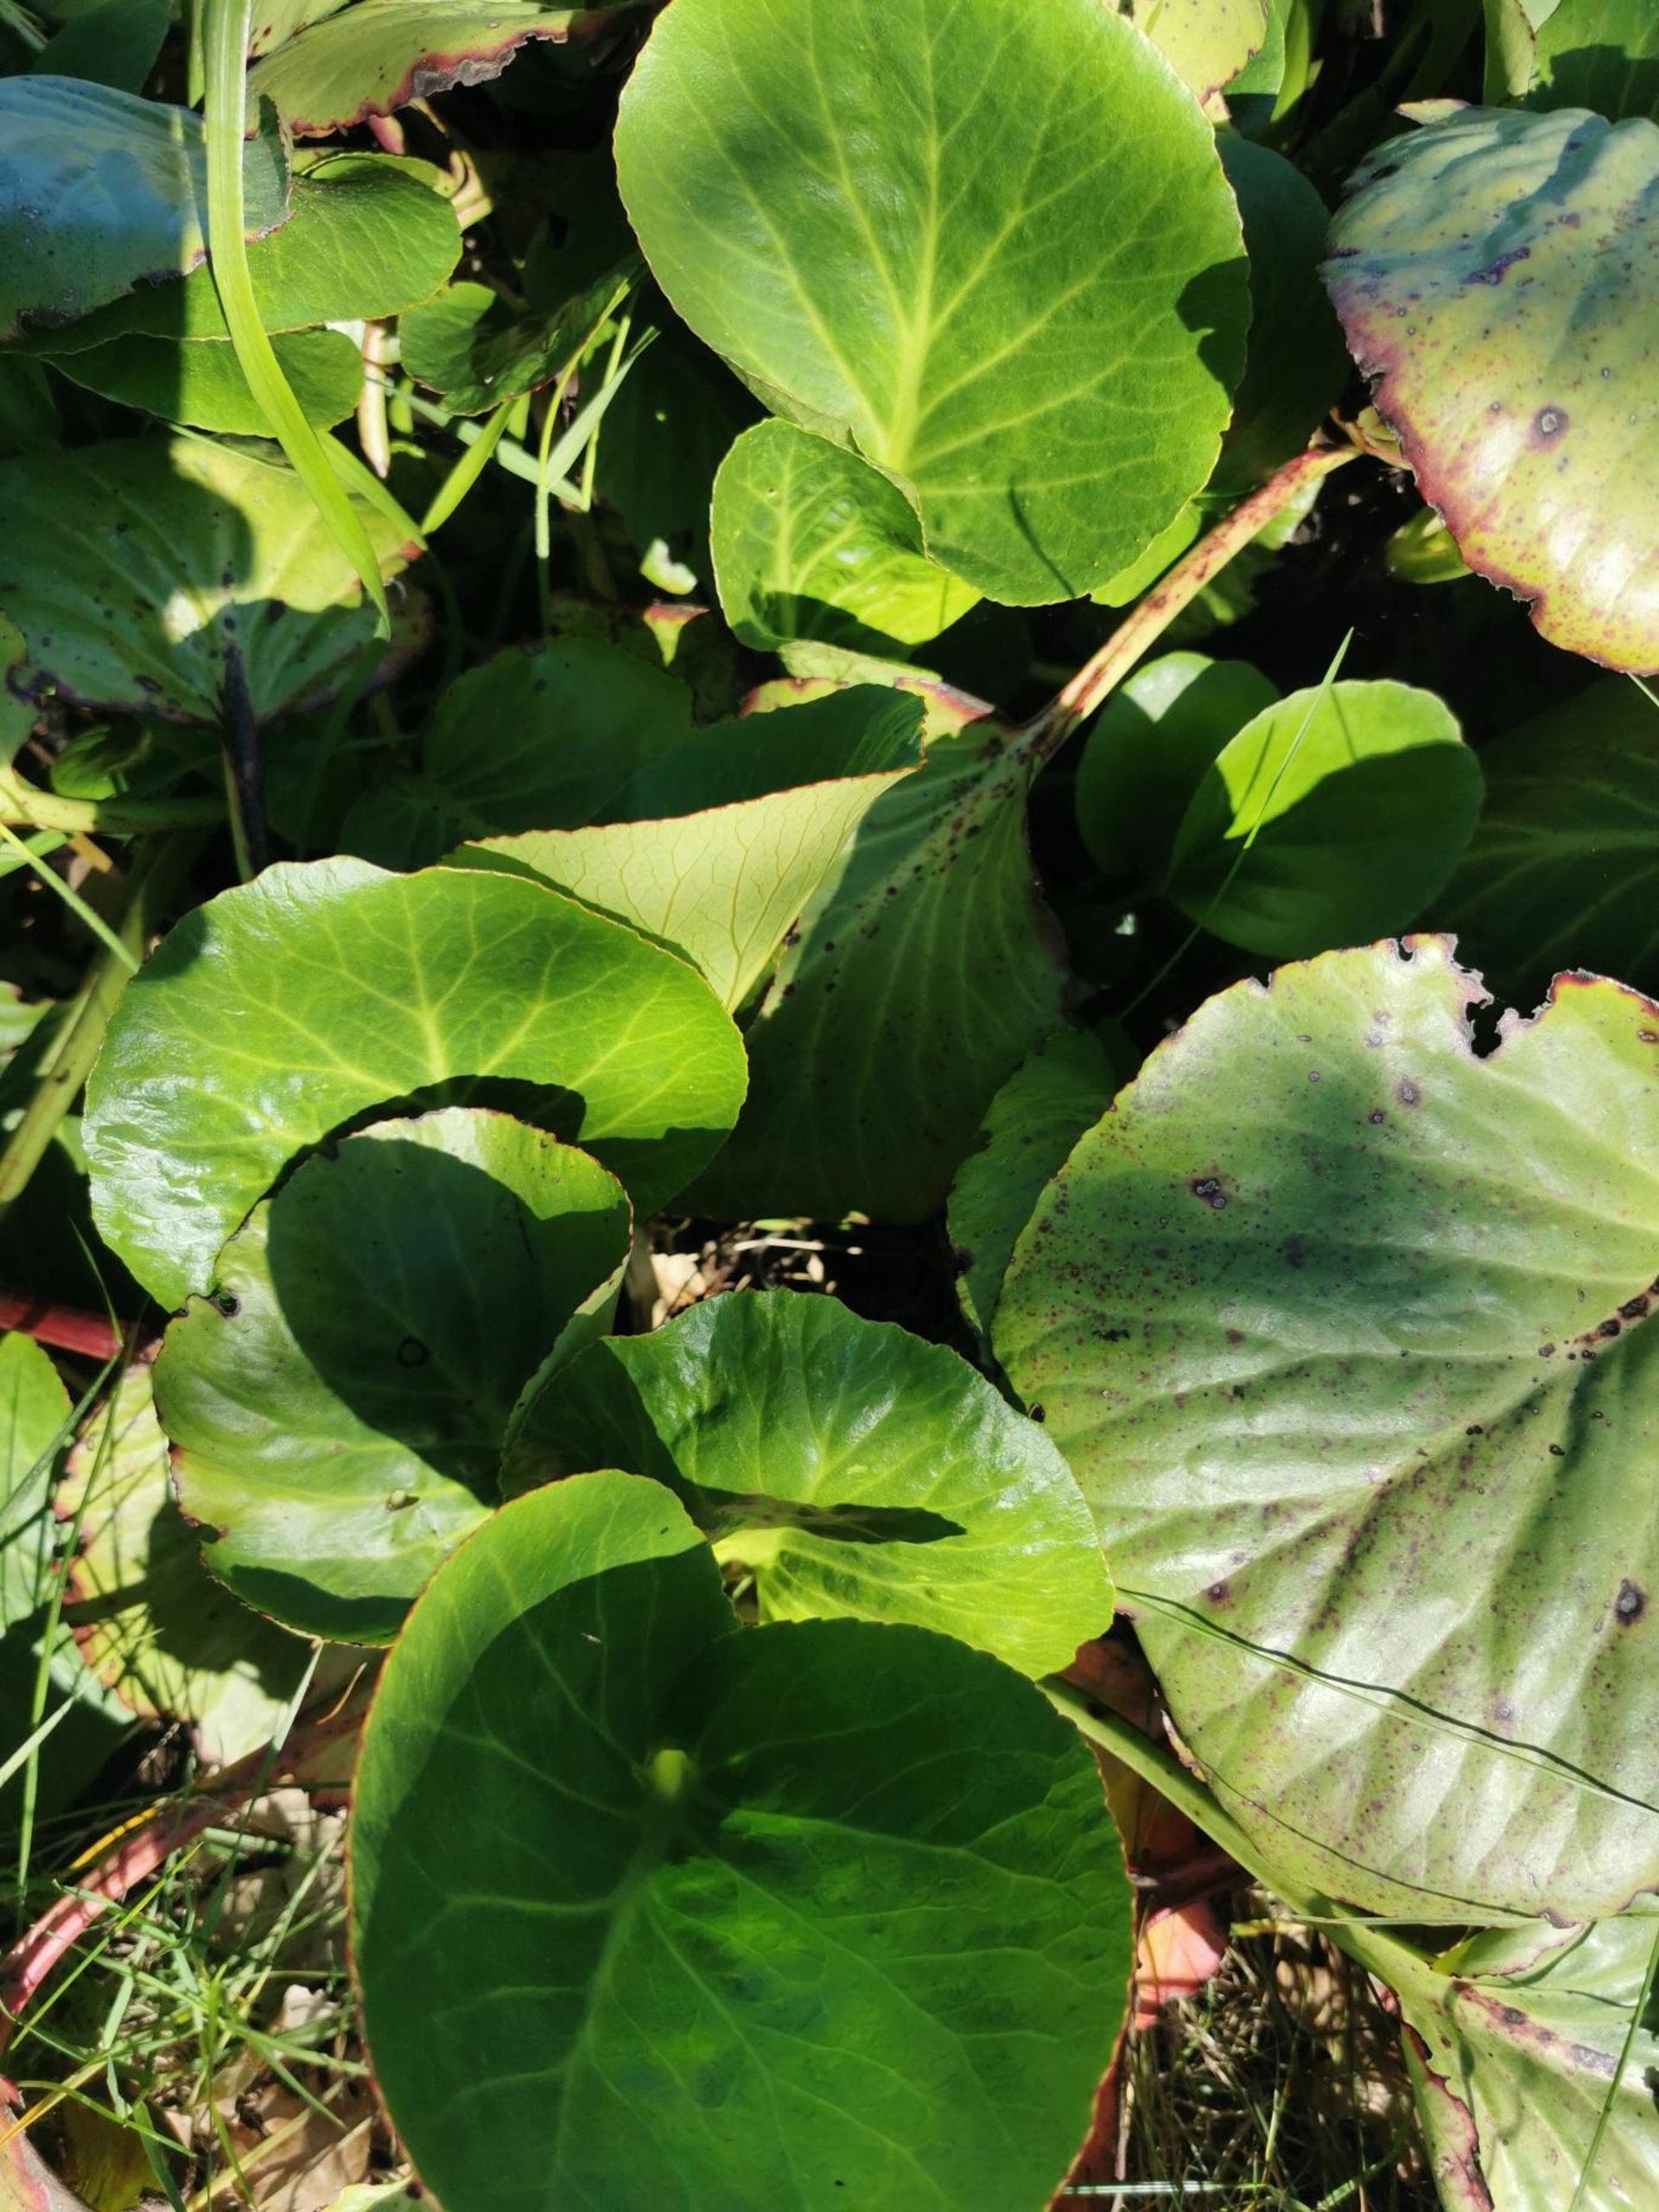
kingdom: Plantae
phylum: Tracheophyta
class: Magnoliopsida
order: Saxifragales
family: Saxifragaceae
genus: Bergenia
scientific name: Bergenia crassifolia
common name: Almindelig kæmpestenbræk
